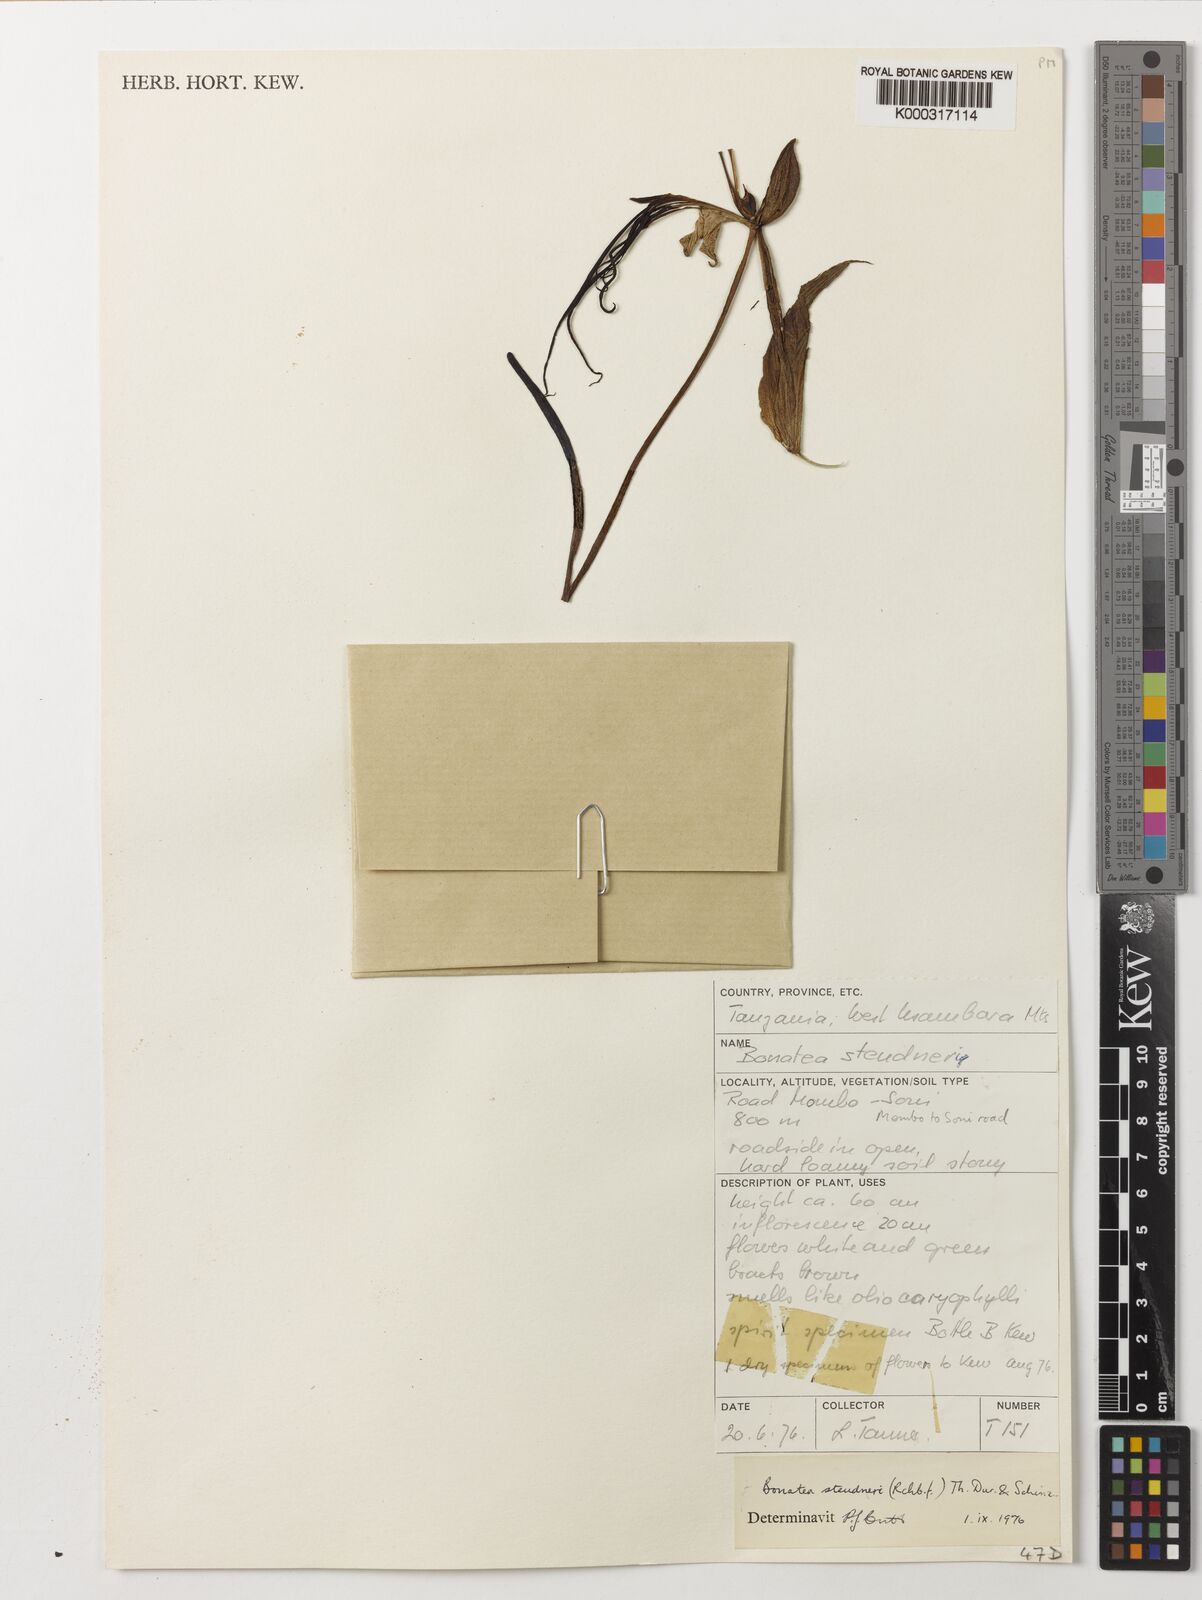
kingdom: Plantae
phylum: Tracheophyta
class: Liliopsida
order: Asparagales
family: Orchidaceae
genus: Bonatea
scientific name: Bonatea steudneri
